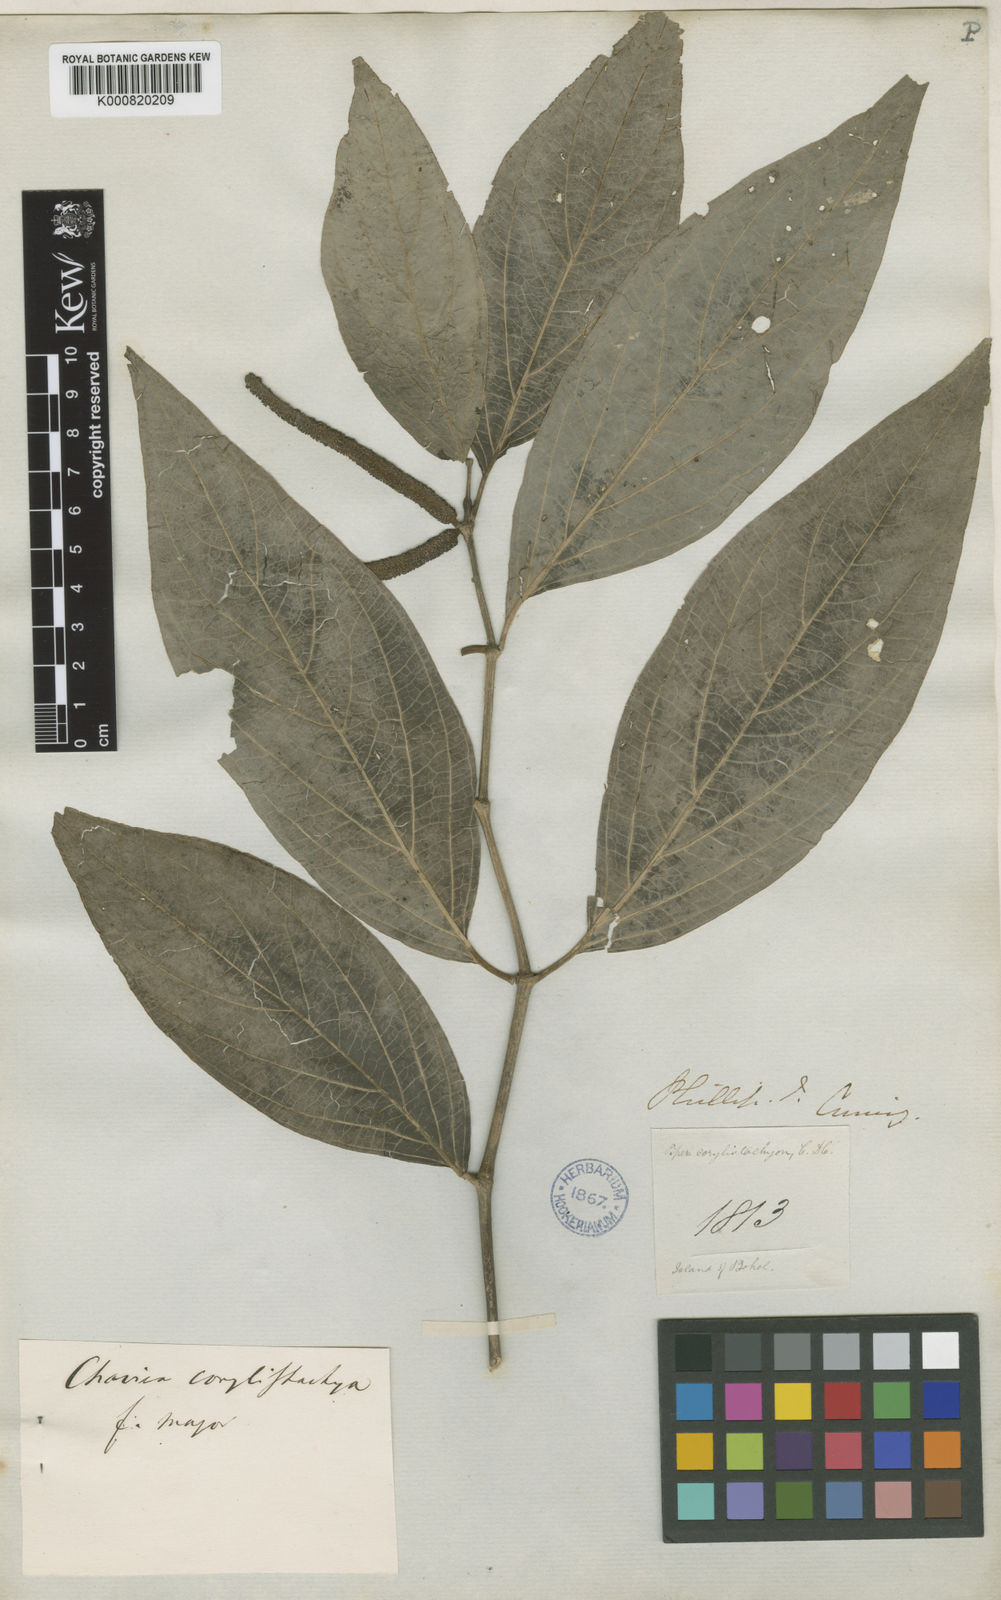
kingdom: Plantae
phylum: Tracheophyta
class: Magnoliopsida
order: Piperales
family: Piperaceae
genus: Piper
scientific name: Piper celtidiforme
